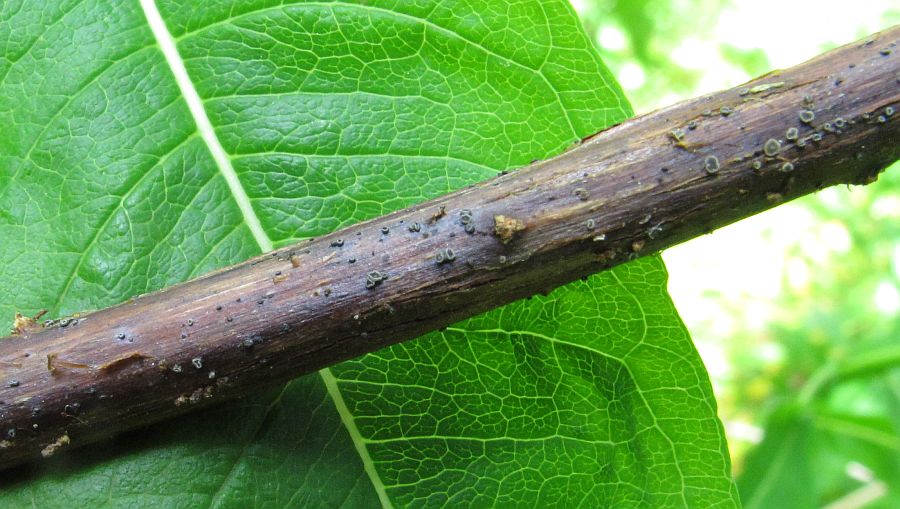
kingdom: Fungi
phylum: Ascomycota
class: Leotiomycetes
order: Helotiales
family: Mollisiaceae
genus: Mollisia
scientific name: Mollisia clavata
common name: dueurt-gråskive
